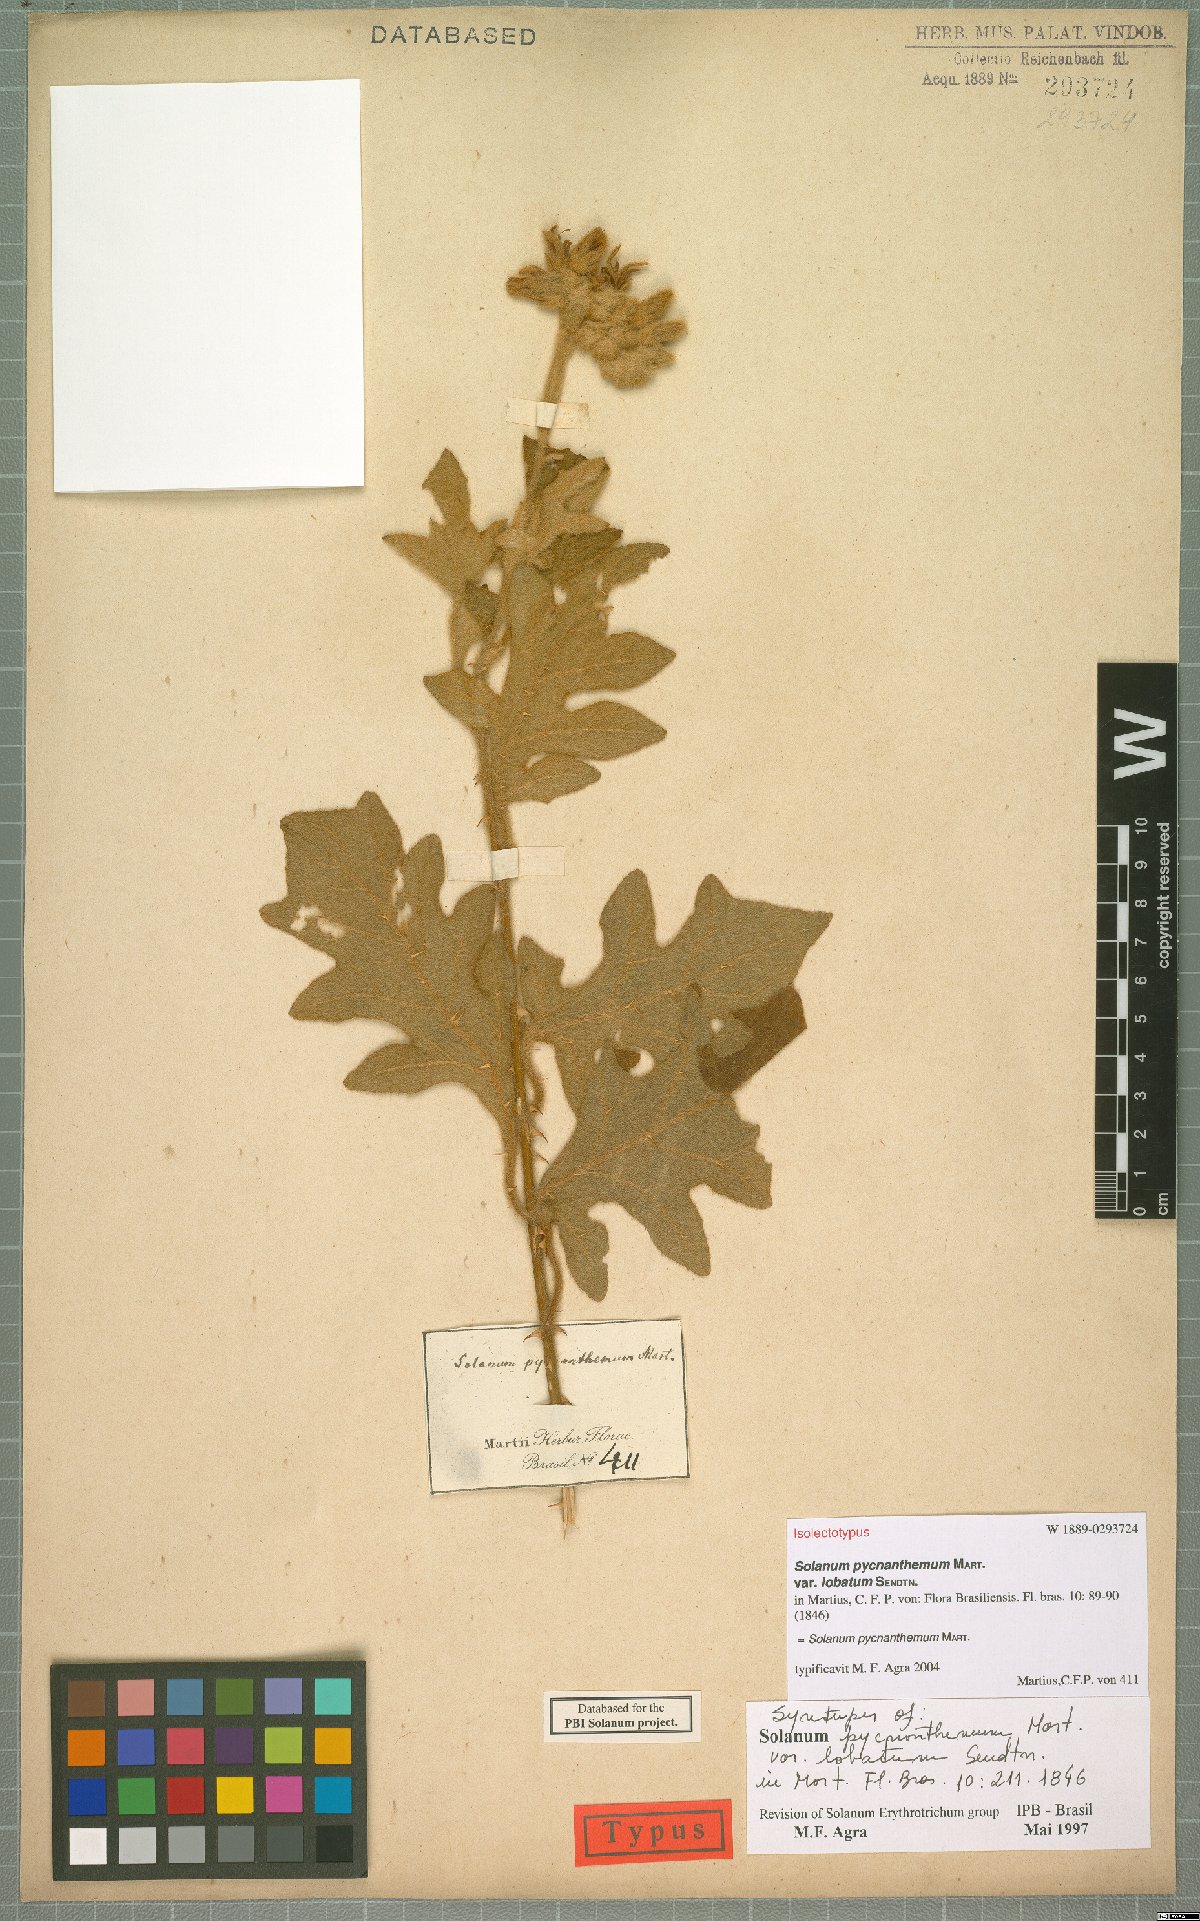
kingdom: Plantae
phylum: Tracheophyta
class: Magnoliopsida
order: Solanales
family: Solanaceae
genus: Solanum
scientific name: Solanum pycnanthemum
